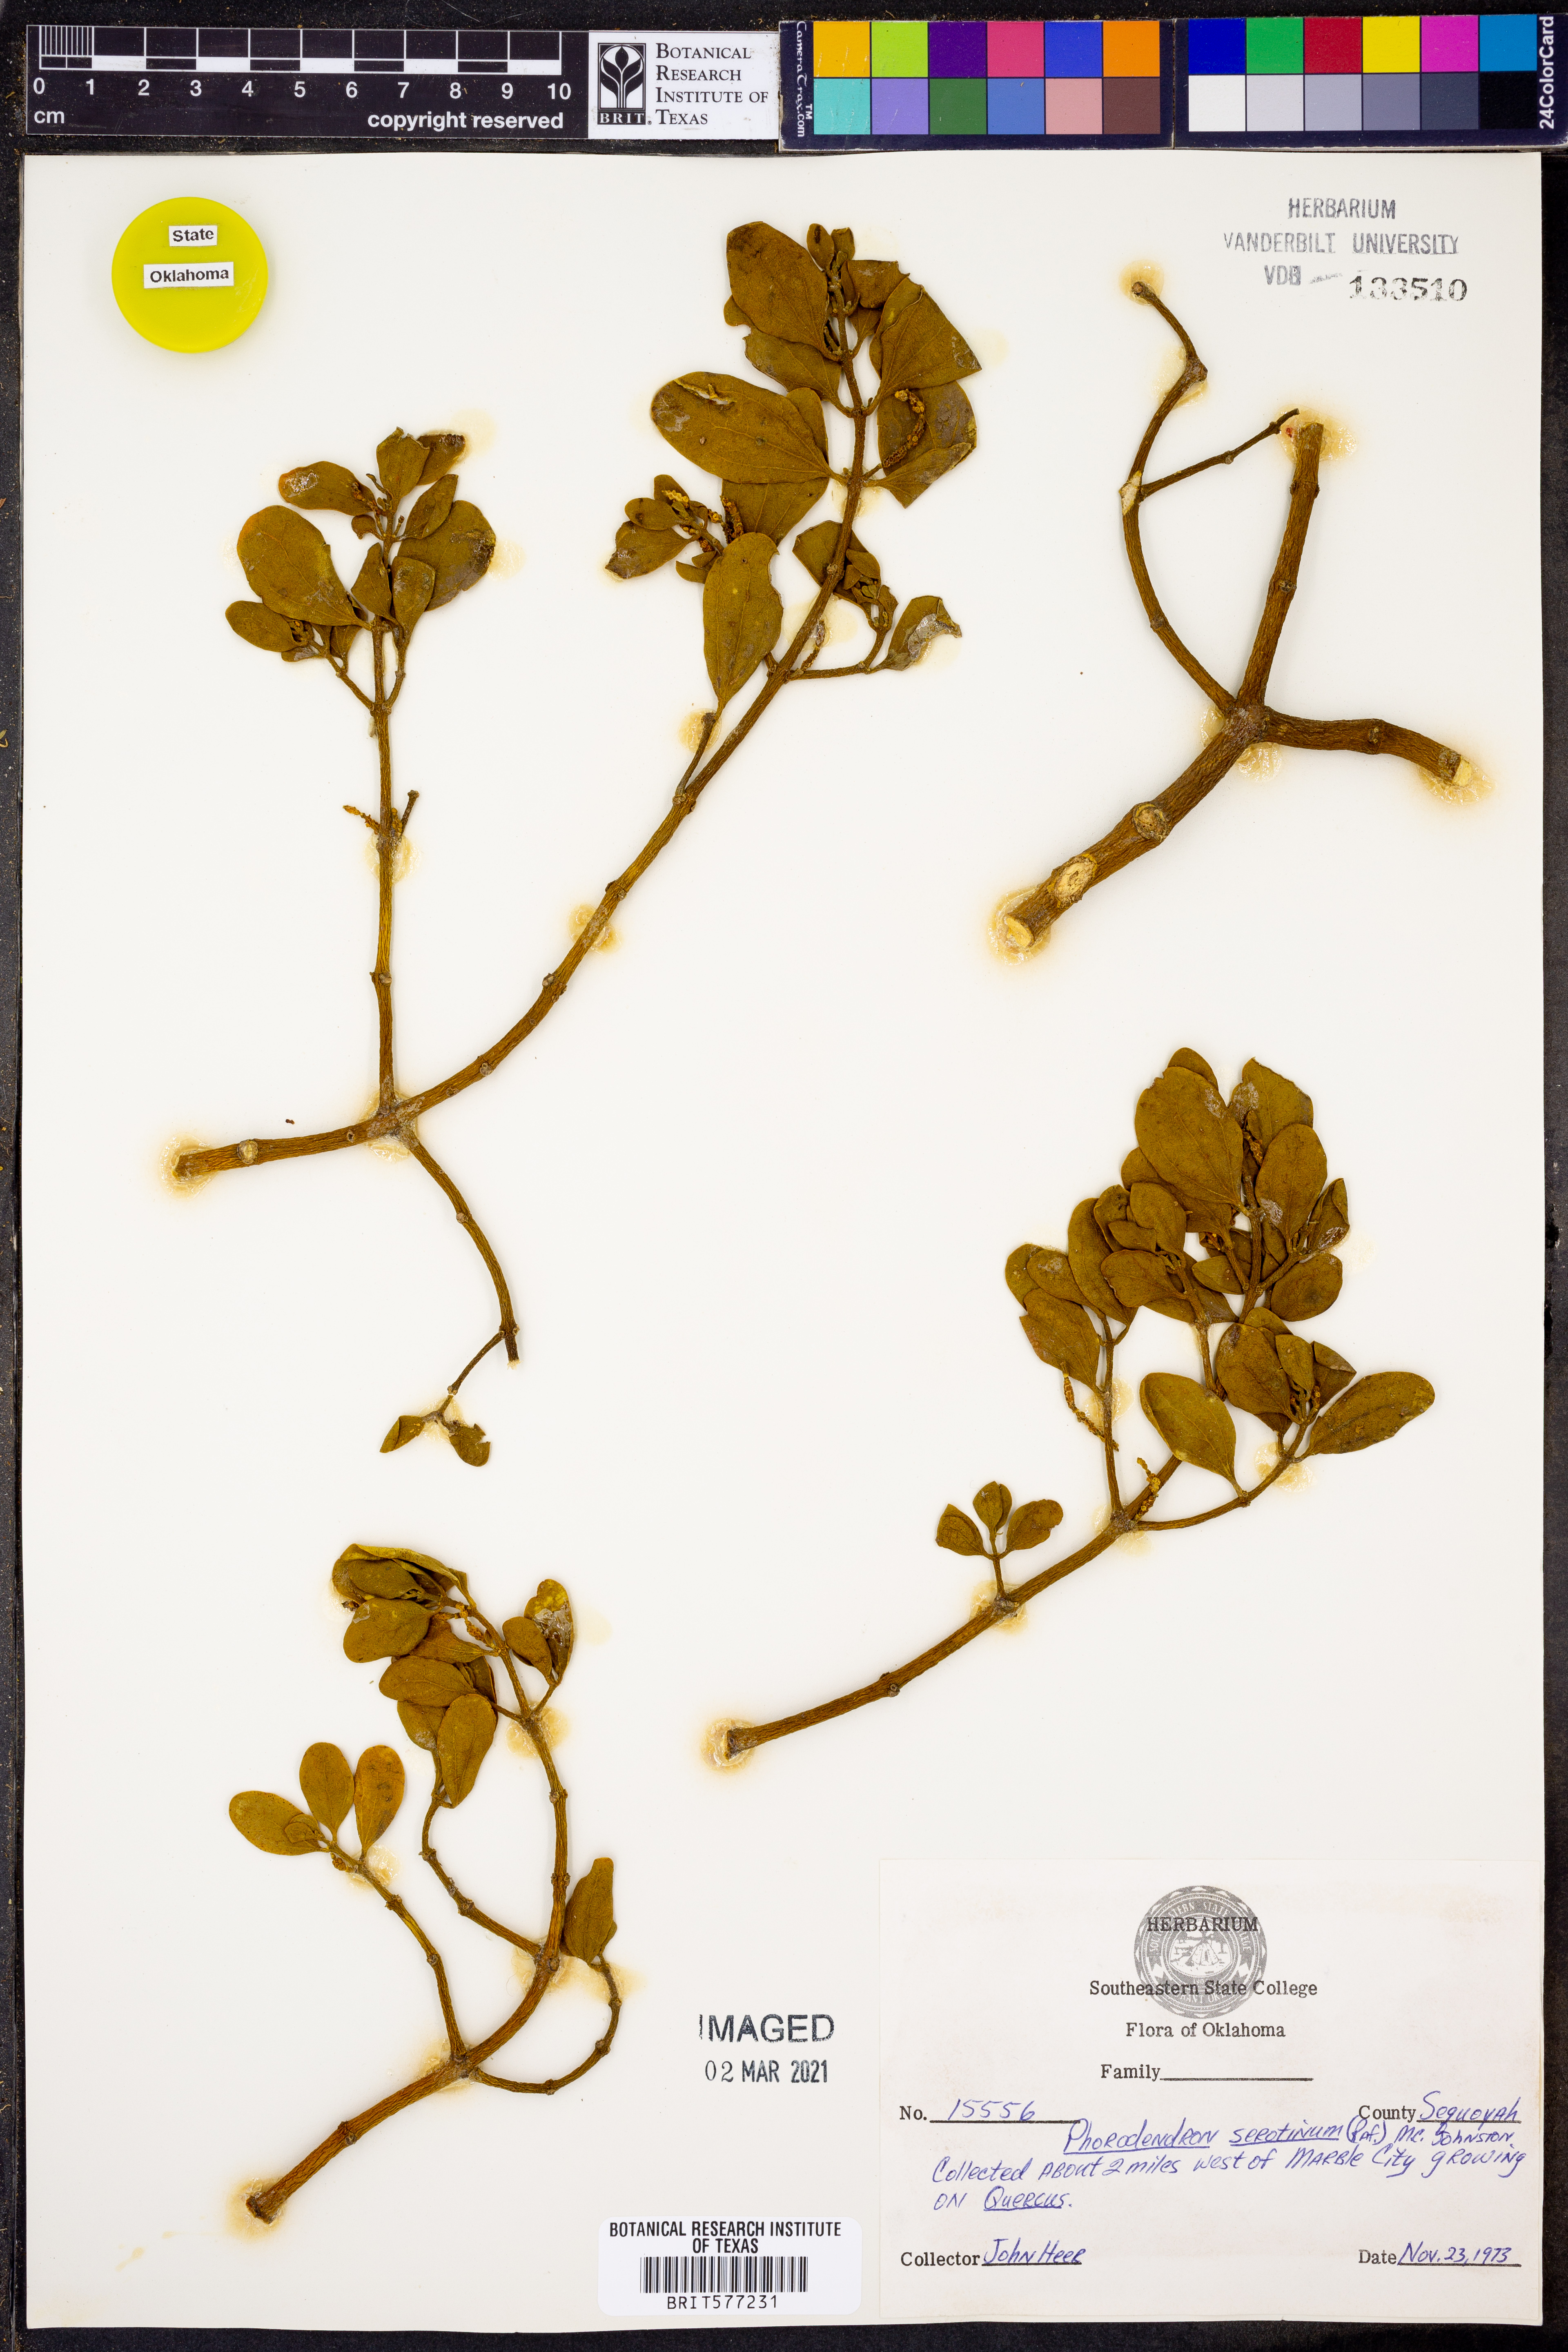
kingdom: Plantae
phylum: Tracheophyta
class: Magnoliopsida
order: Santalales
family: Viscaceae
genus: Phoradendron
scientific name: Phoradendron leucarpum
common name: Pacific mistletoe
